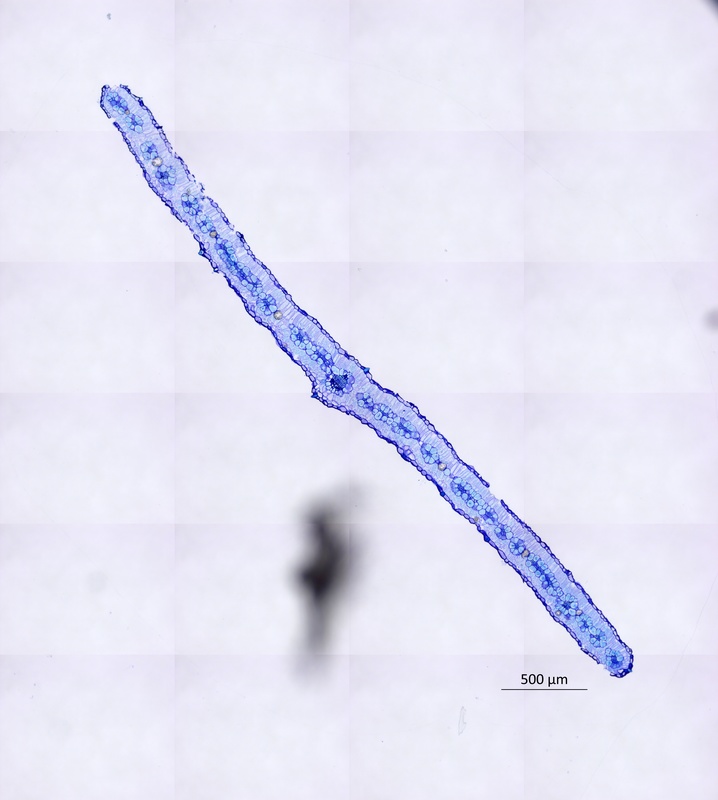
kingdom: Plantae
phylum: Tracheophyta
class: Magnoliopsida
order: Zygophyllales
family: Zygophyllaceae
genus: Tribulus
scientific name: Tribulus eichlerianus
